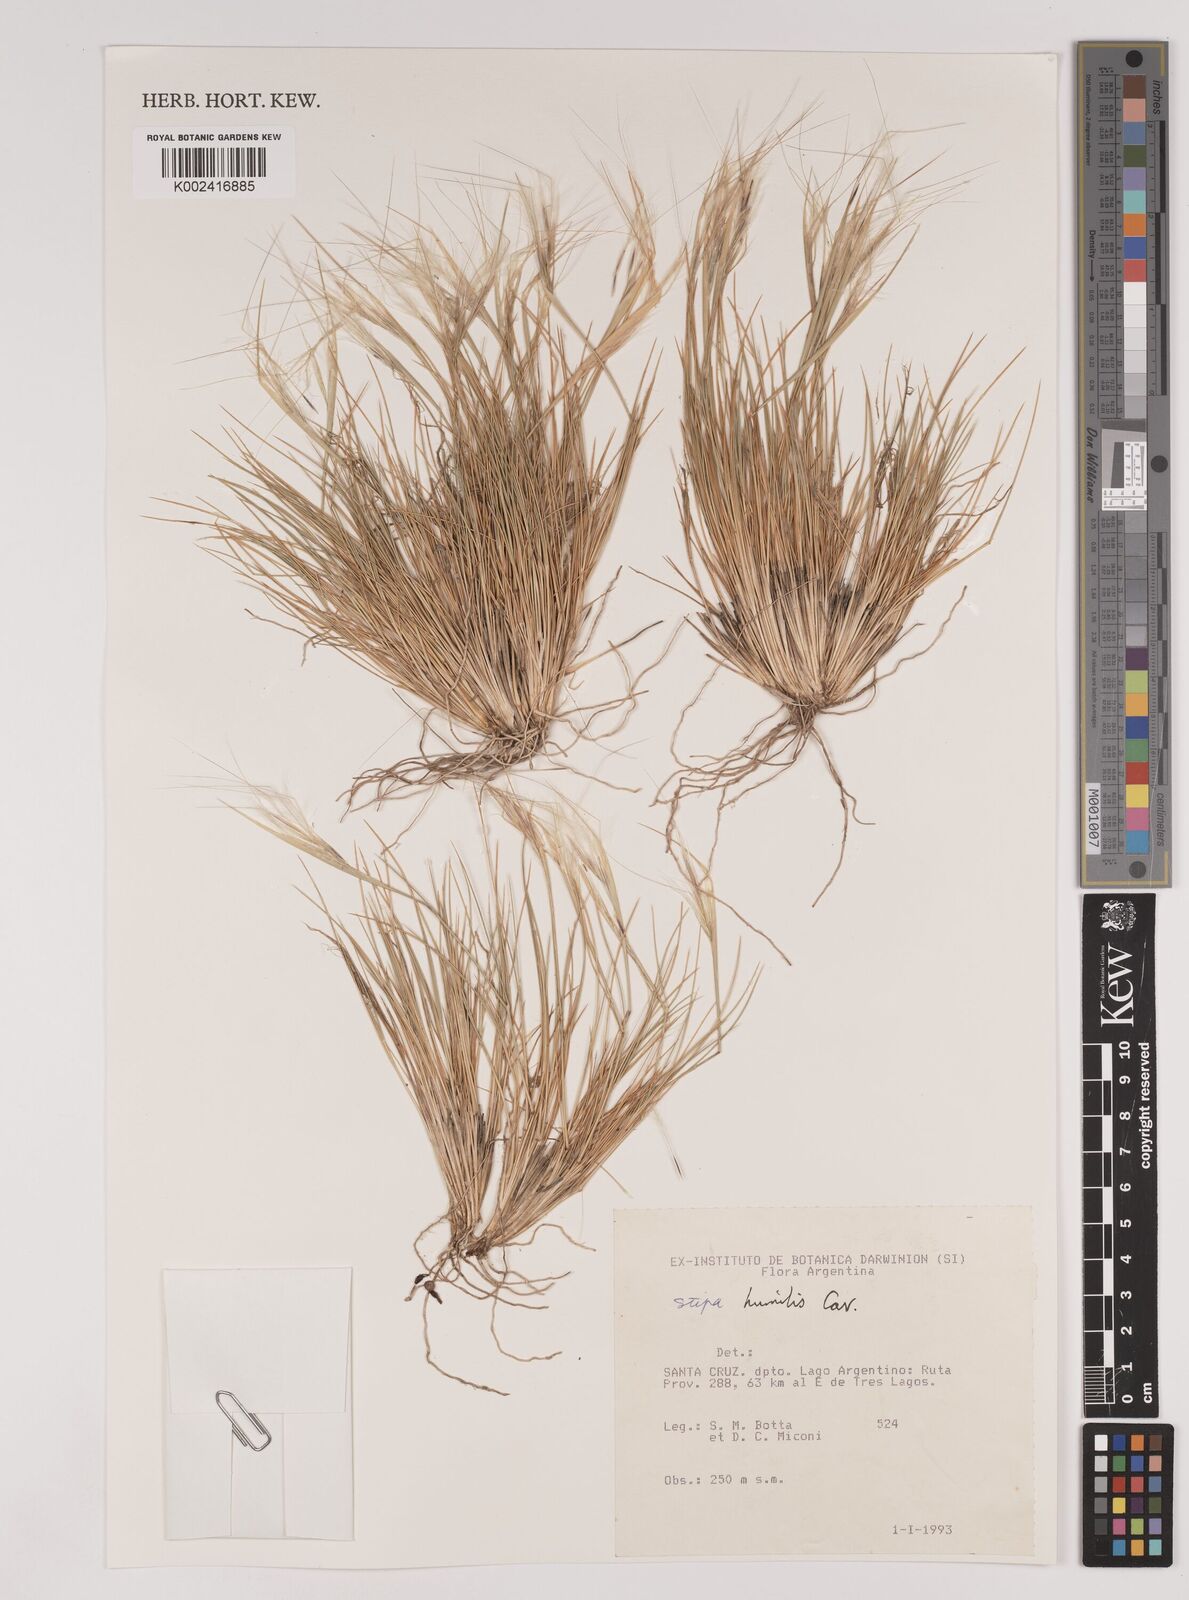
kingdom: Plantae
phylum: Tracheophyta
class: Liliopsida
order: Poales
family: Poaceae
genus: Pappostipa
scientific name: Pappostipa humilis
